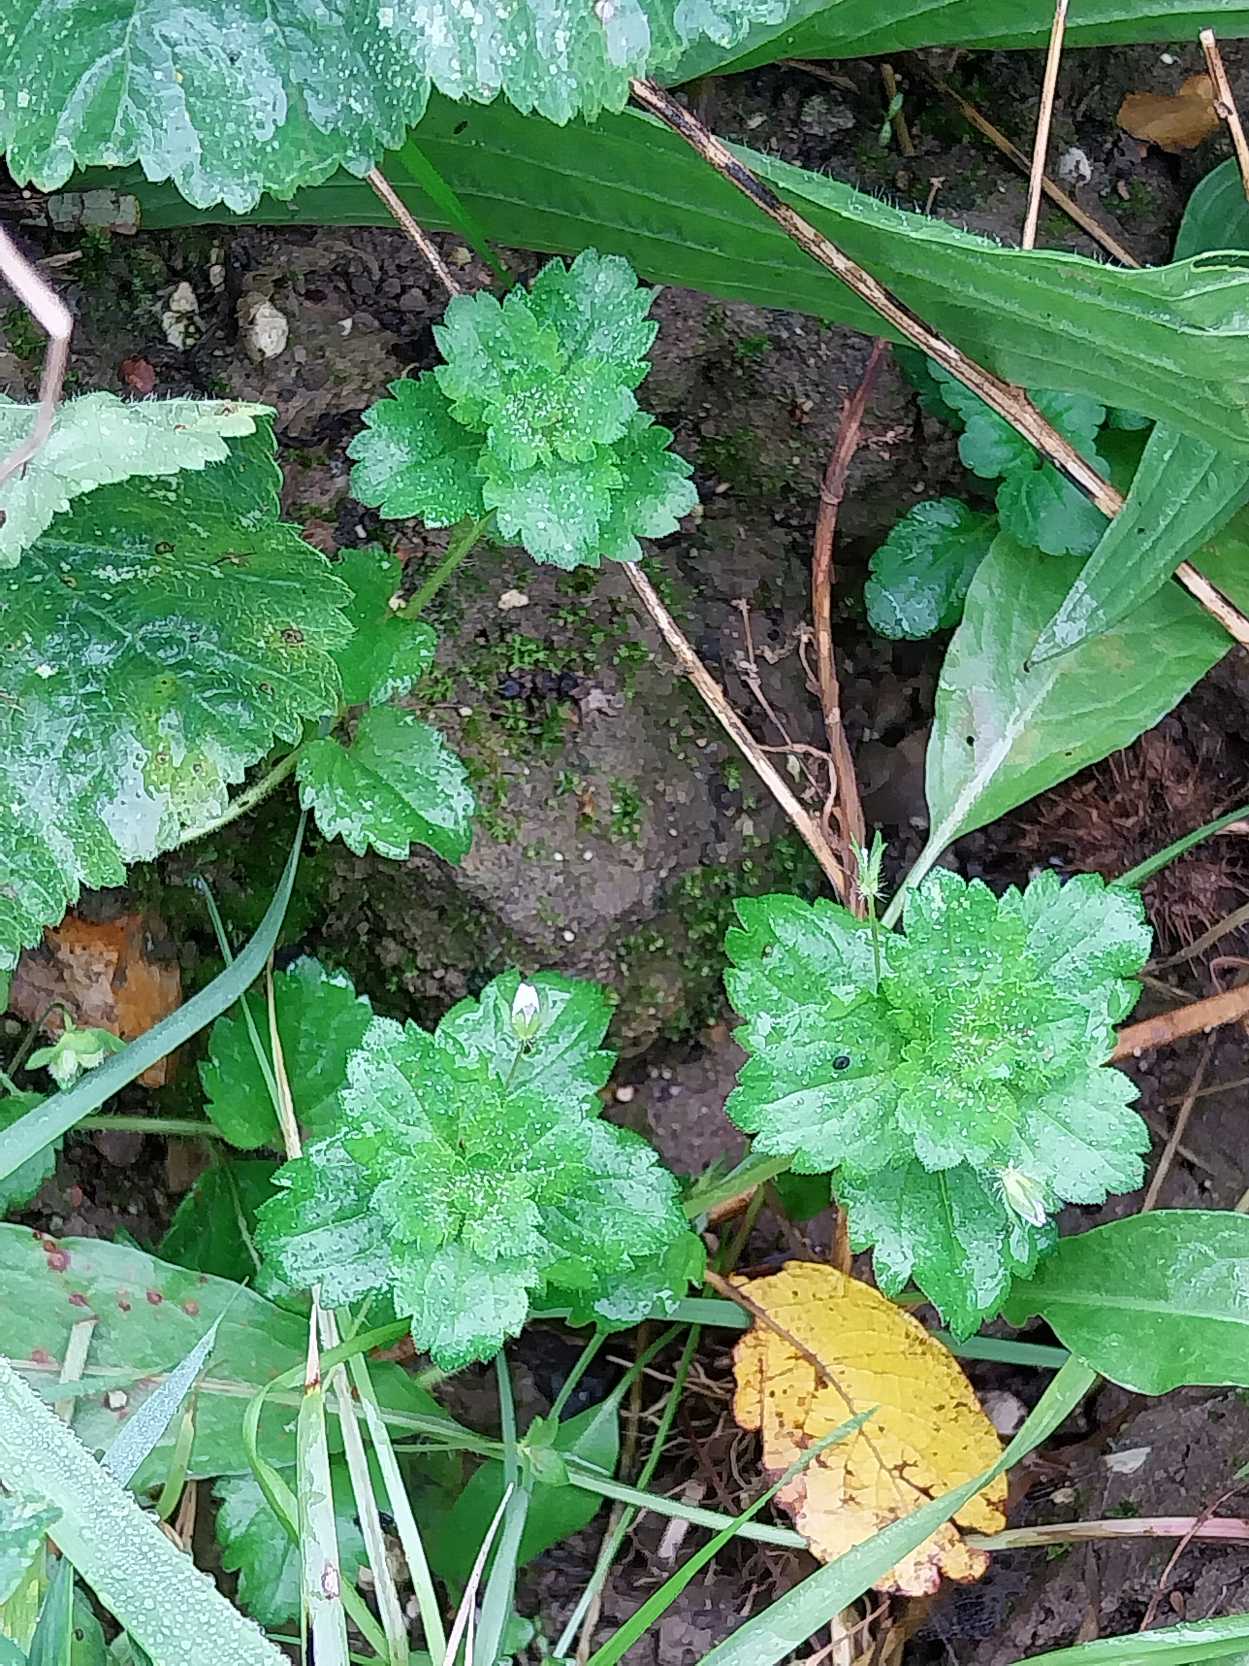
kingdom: Plantae
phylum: Tracheophyta
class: Magnoliopsida
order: Lamiales
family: Plantaginaceae
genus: Veronica
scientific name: Veronica persica
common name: Storkronet ærenpris
